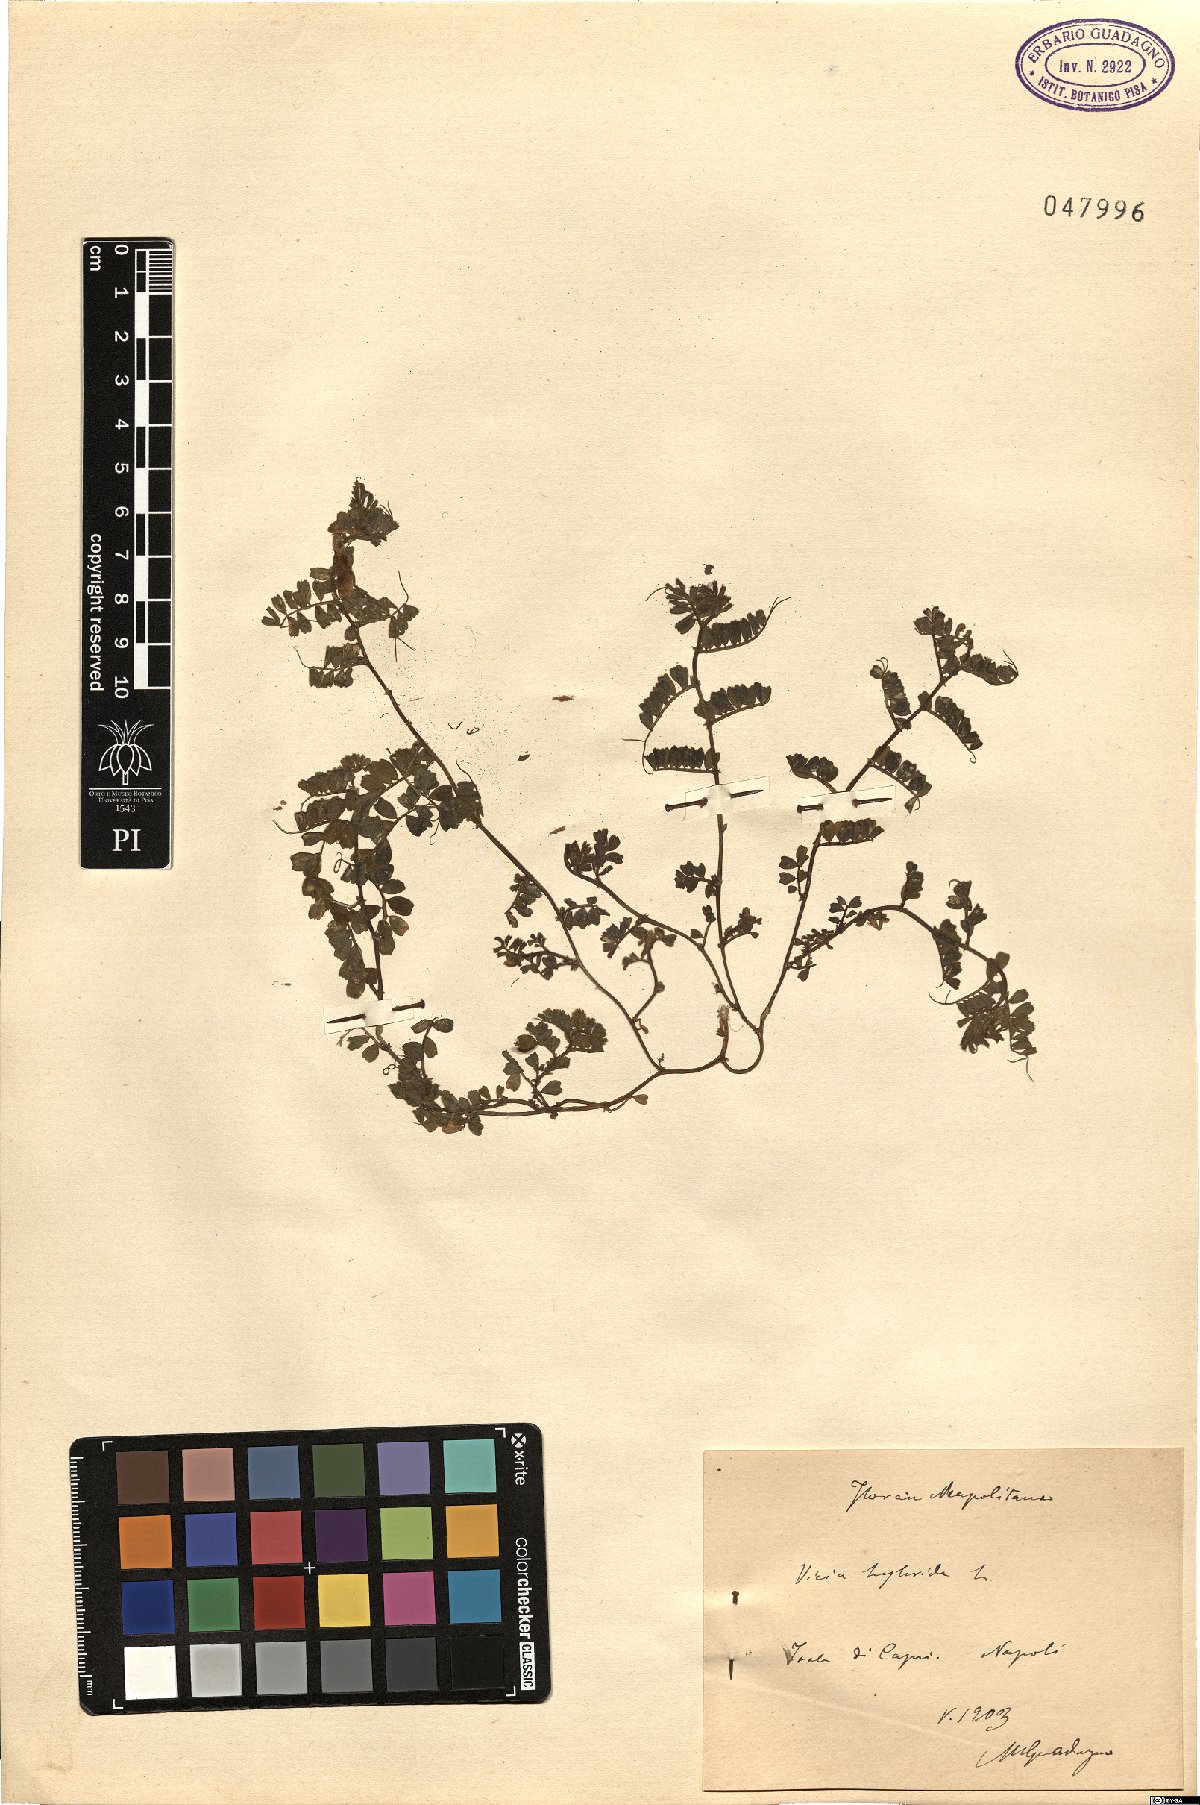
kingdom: Plantae
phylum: Tracheophyta
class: Magnoliopsida
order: Fabales
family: Fabaceae
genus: Vicia
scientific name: Vicia hybrida
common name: Hairy yellow vetch
